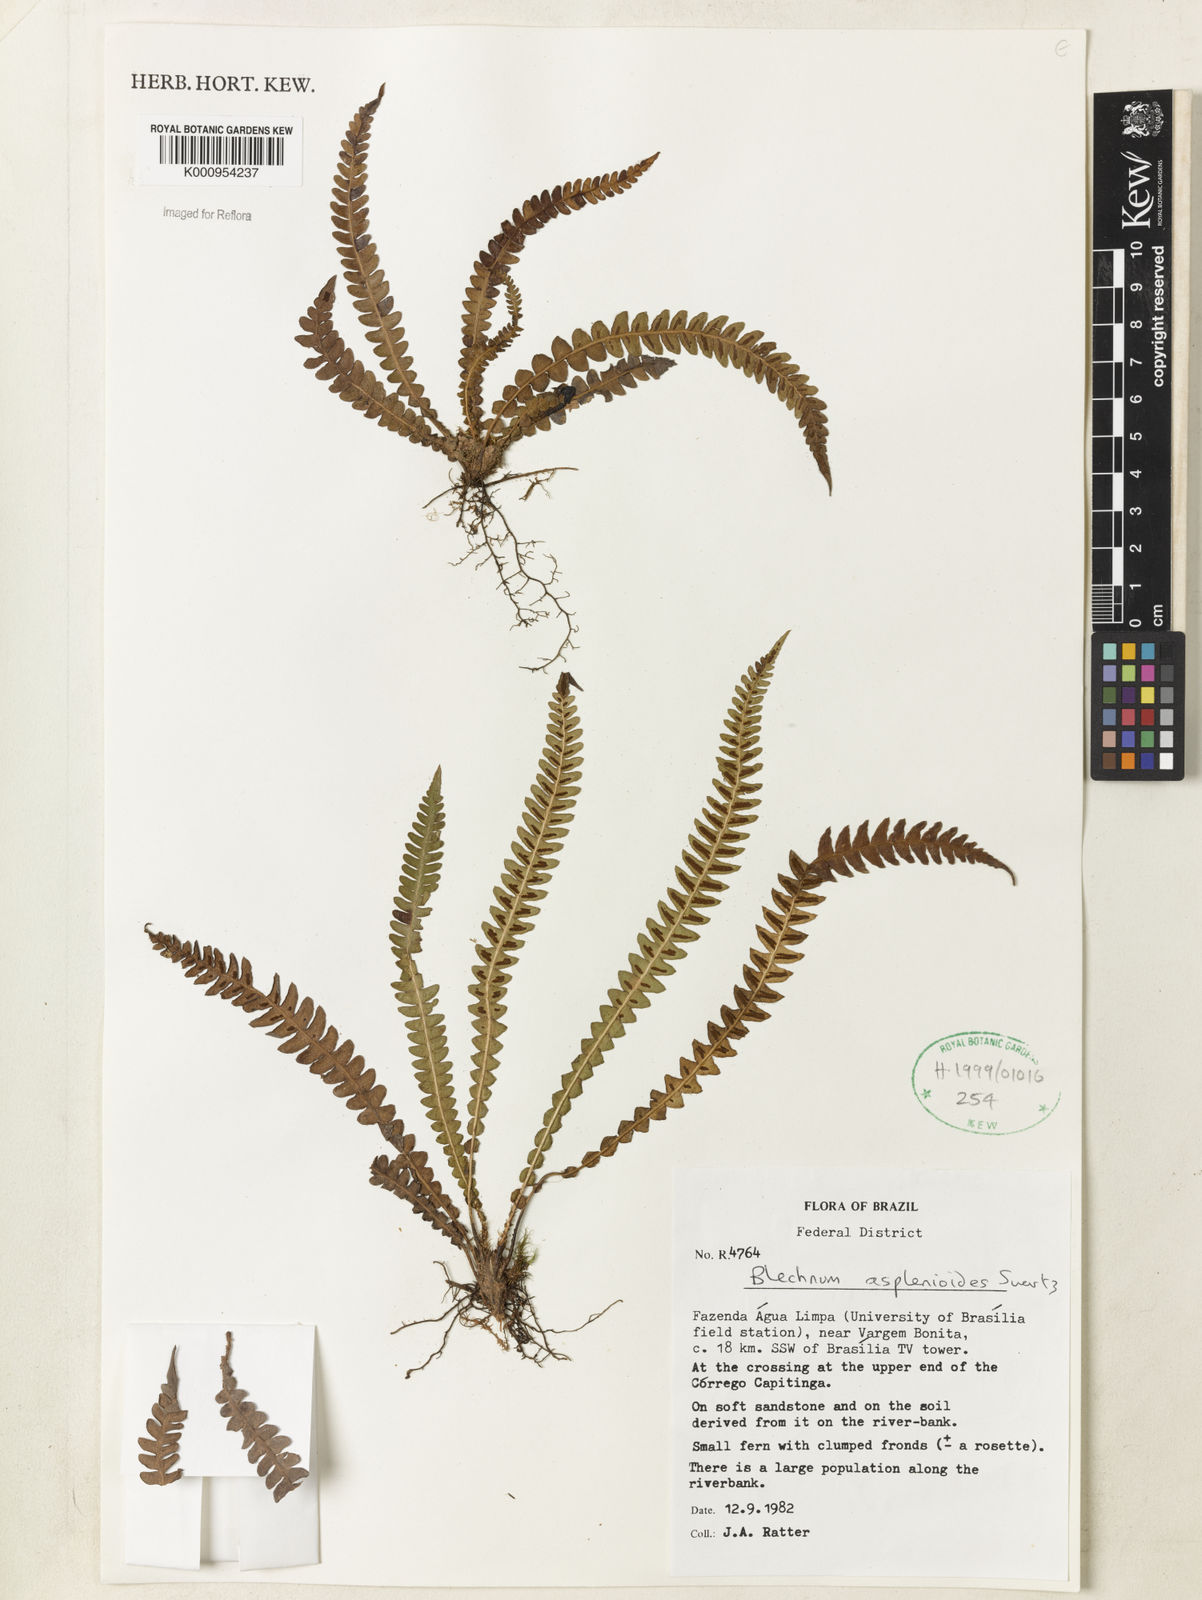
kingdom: Plantae
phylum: Tracheophyta
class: Polypodiopsida
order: Polypodiales
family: Blechnaceae
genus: Blechnum
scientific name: Blechnum asplenioides
